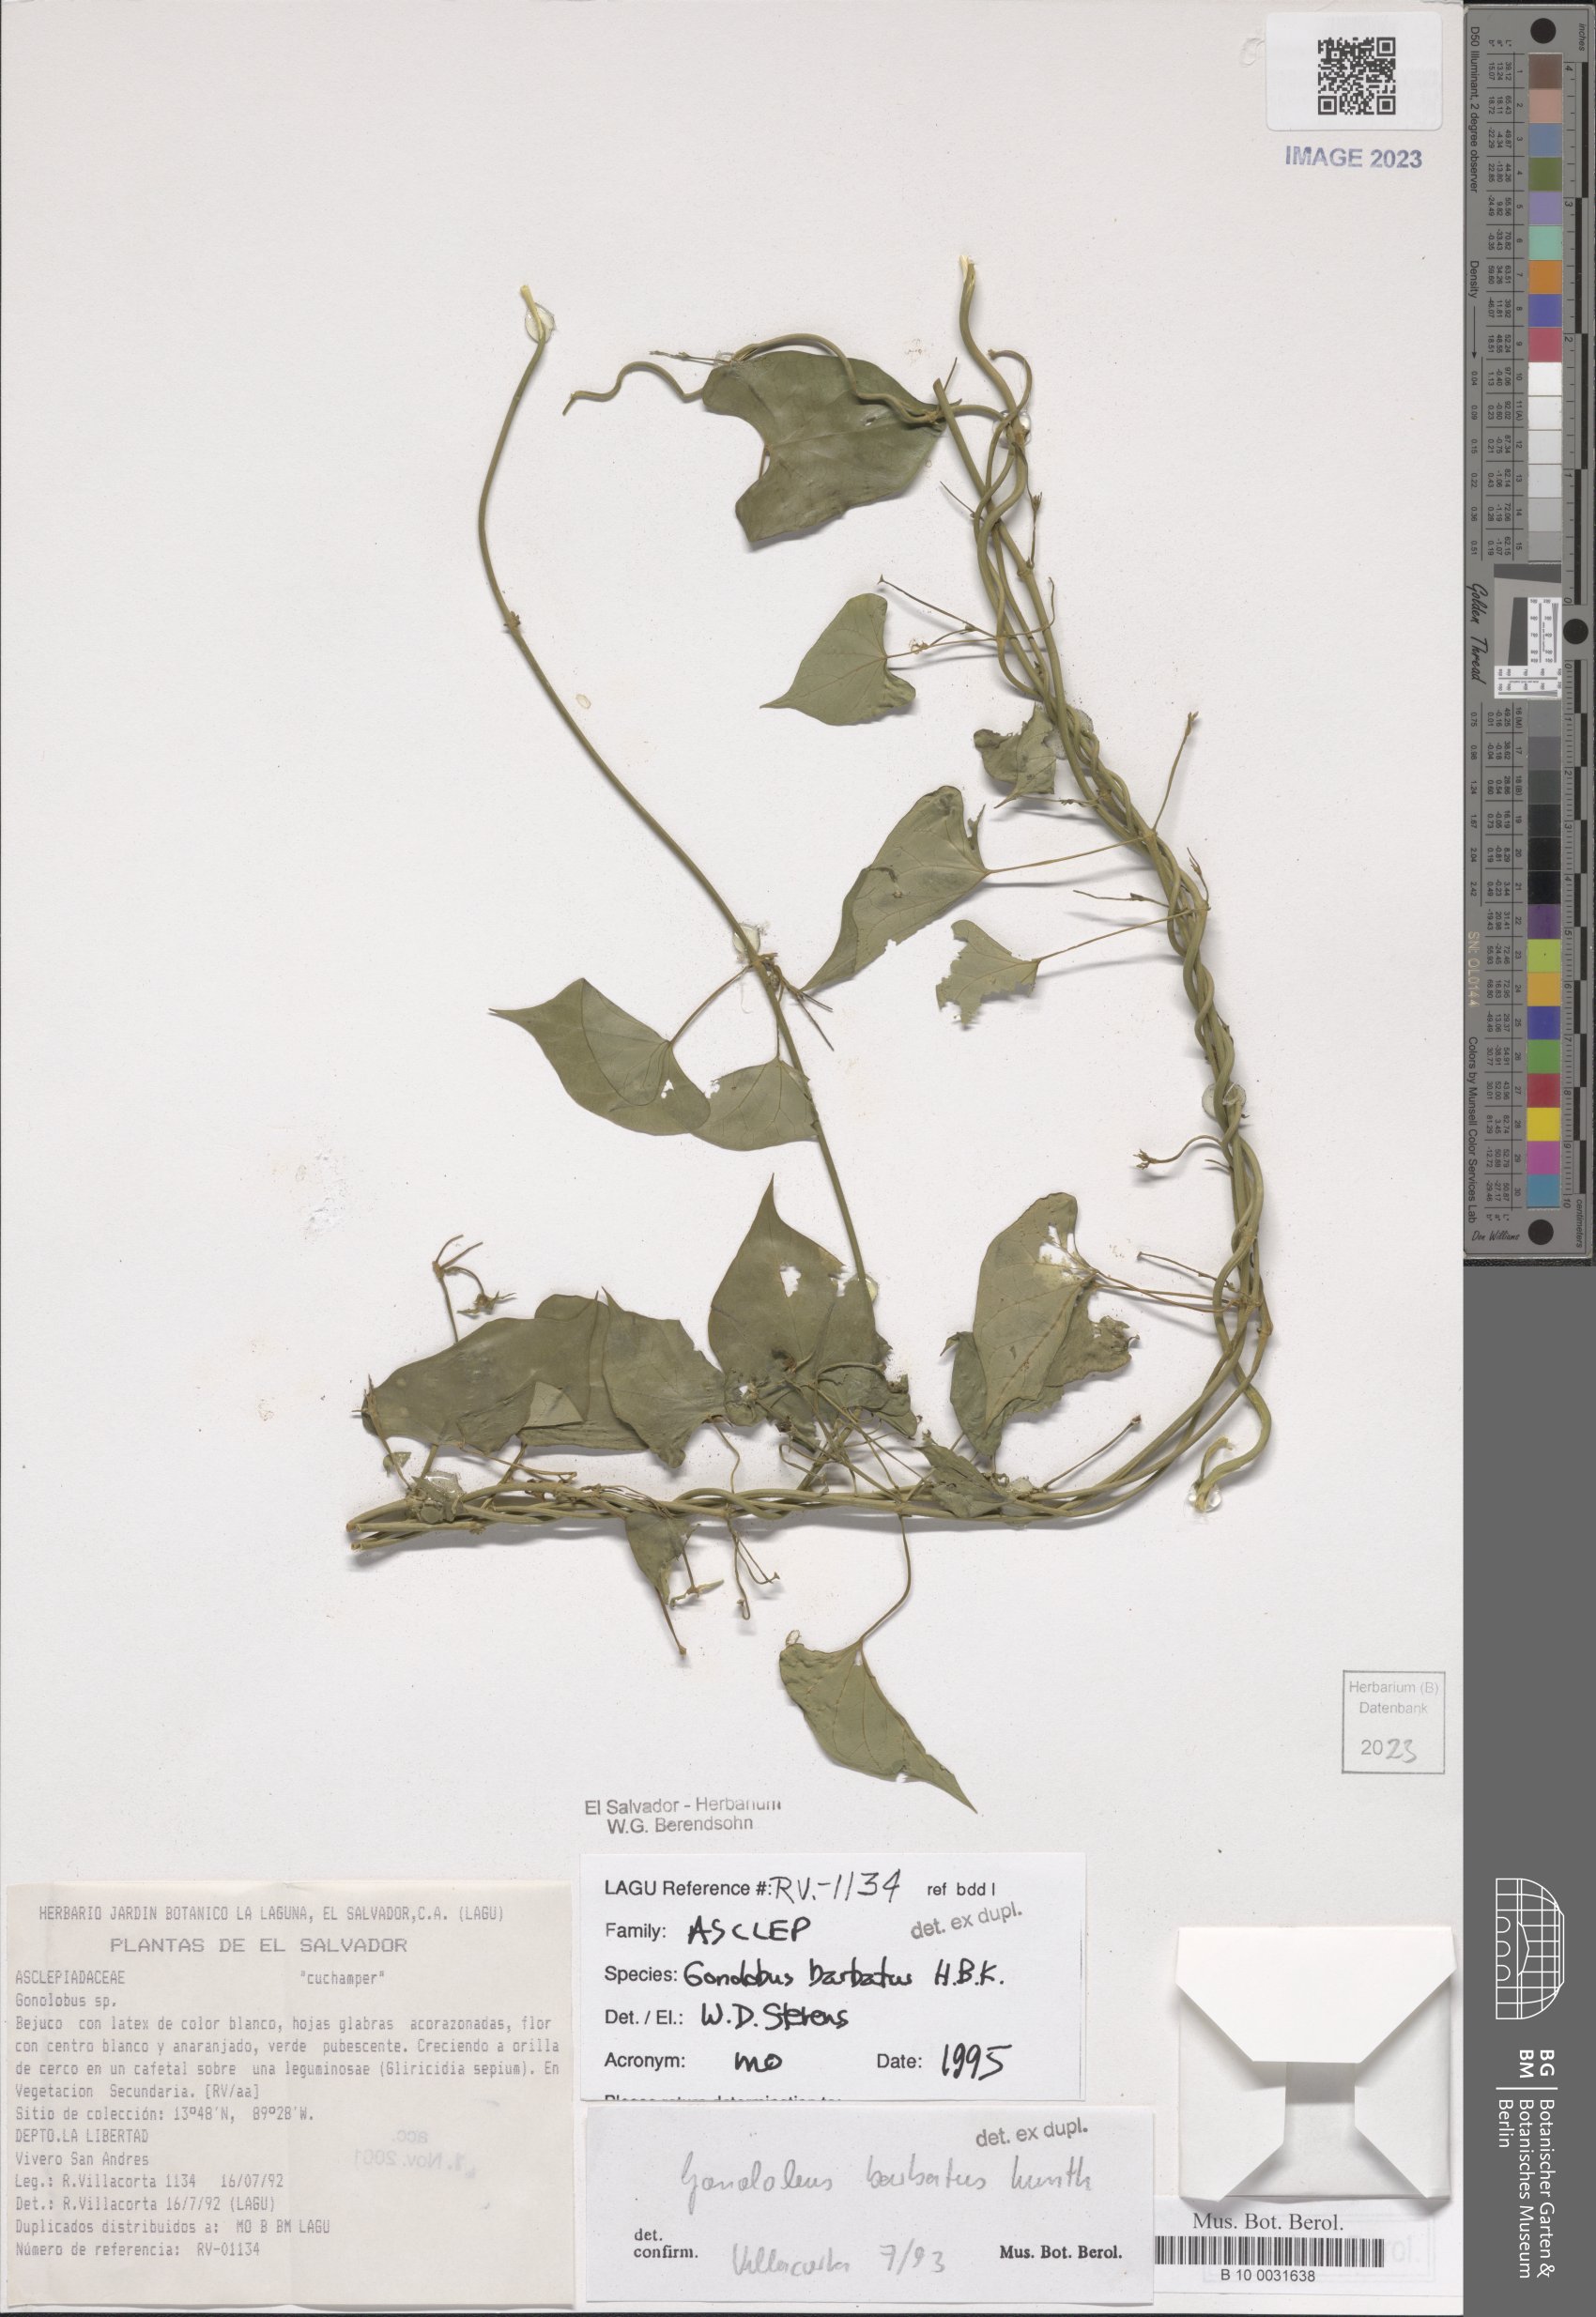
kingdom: Plantae
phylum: Tracheophyta
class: Magnoliopsida
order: Gentianales
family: Apocynaceae
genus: Gonolobus
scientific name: Gonolobus barbatus
